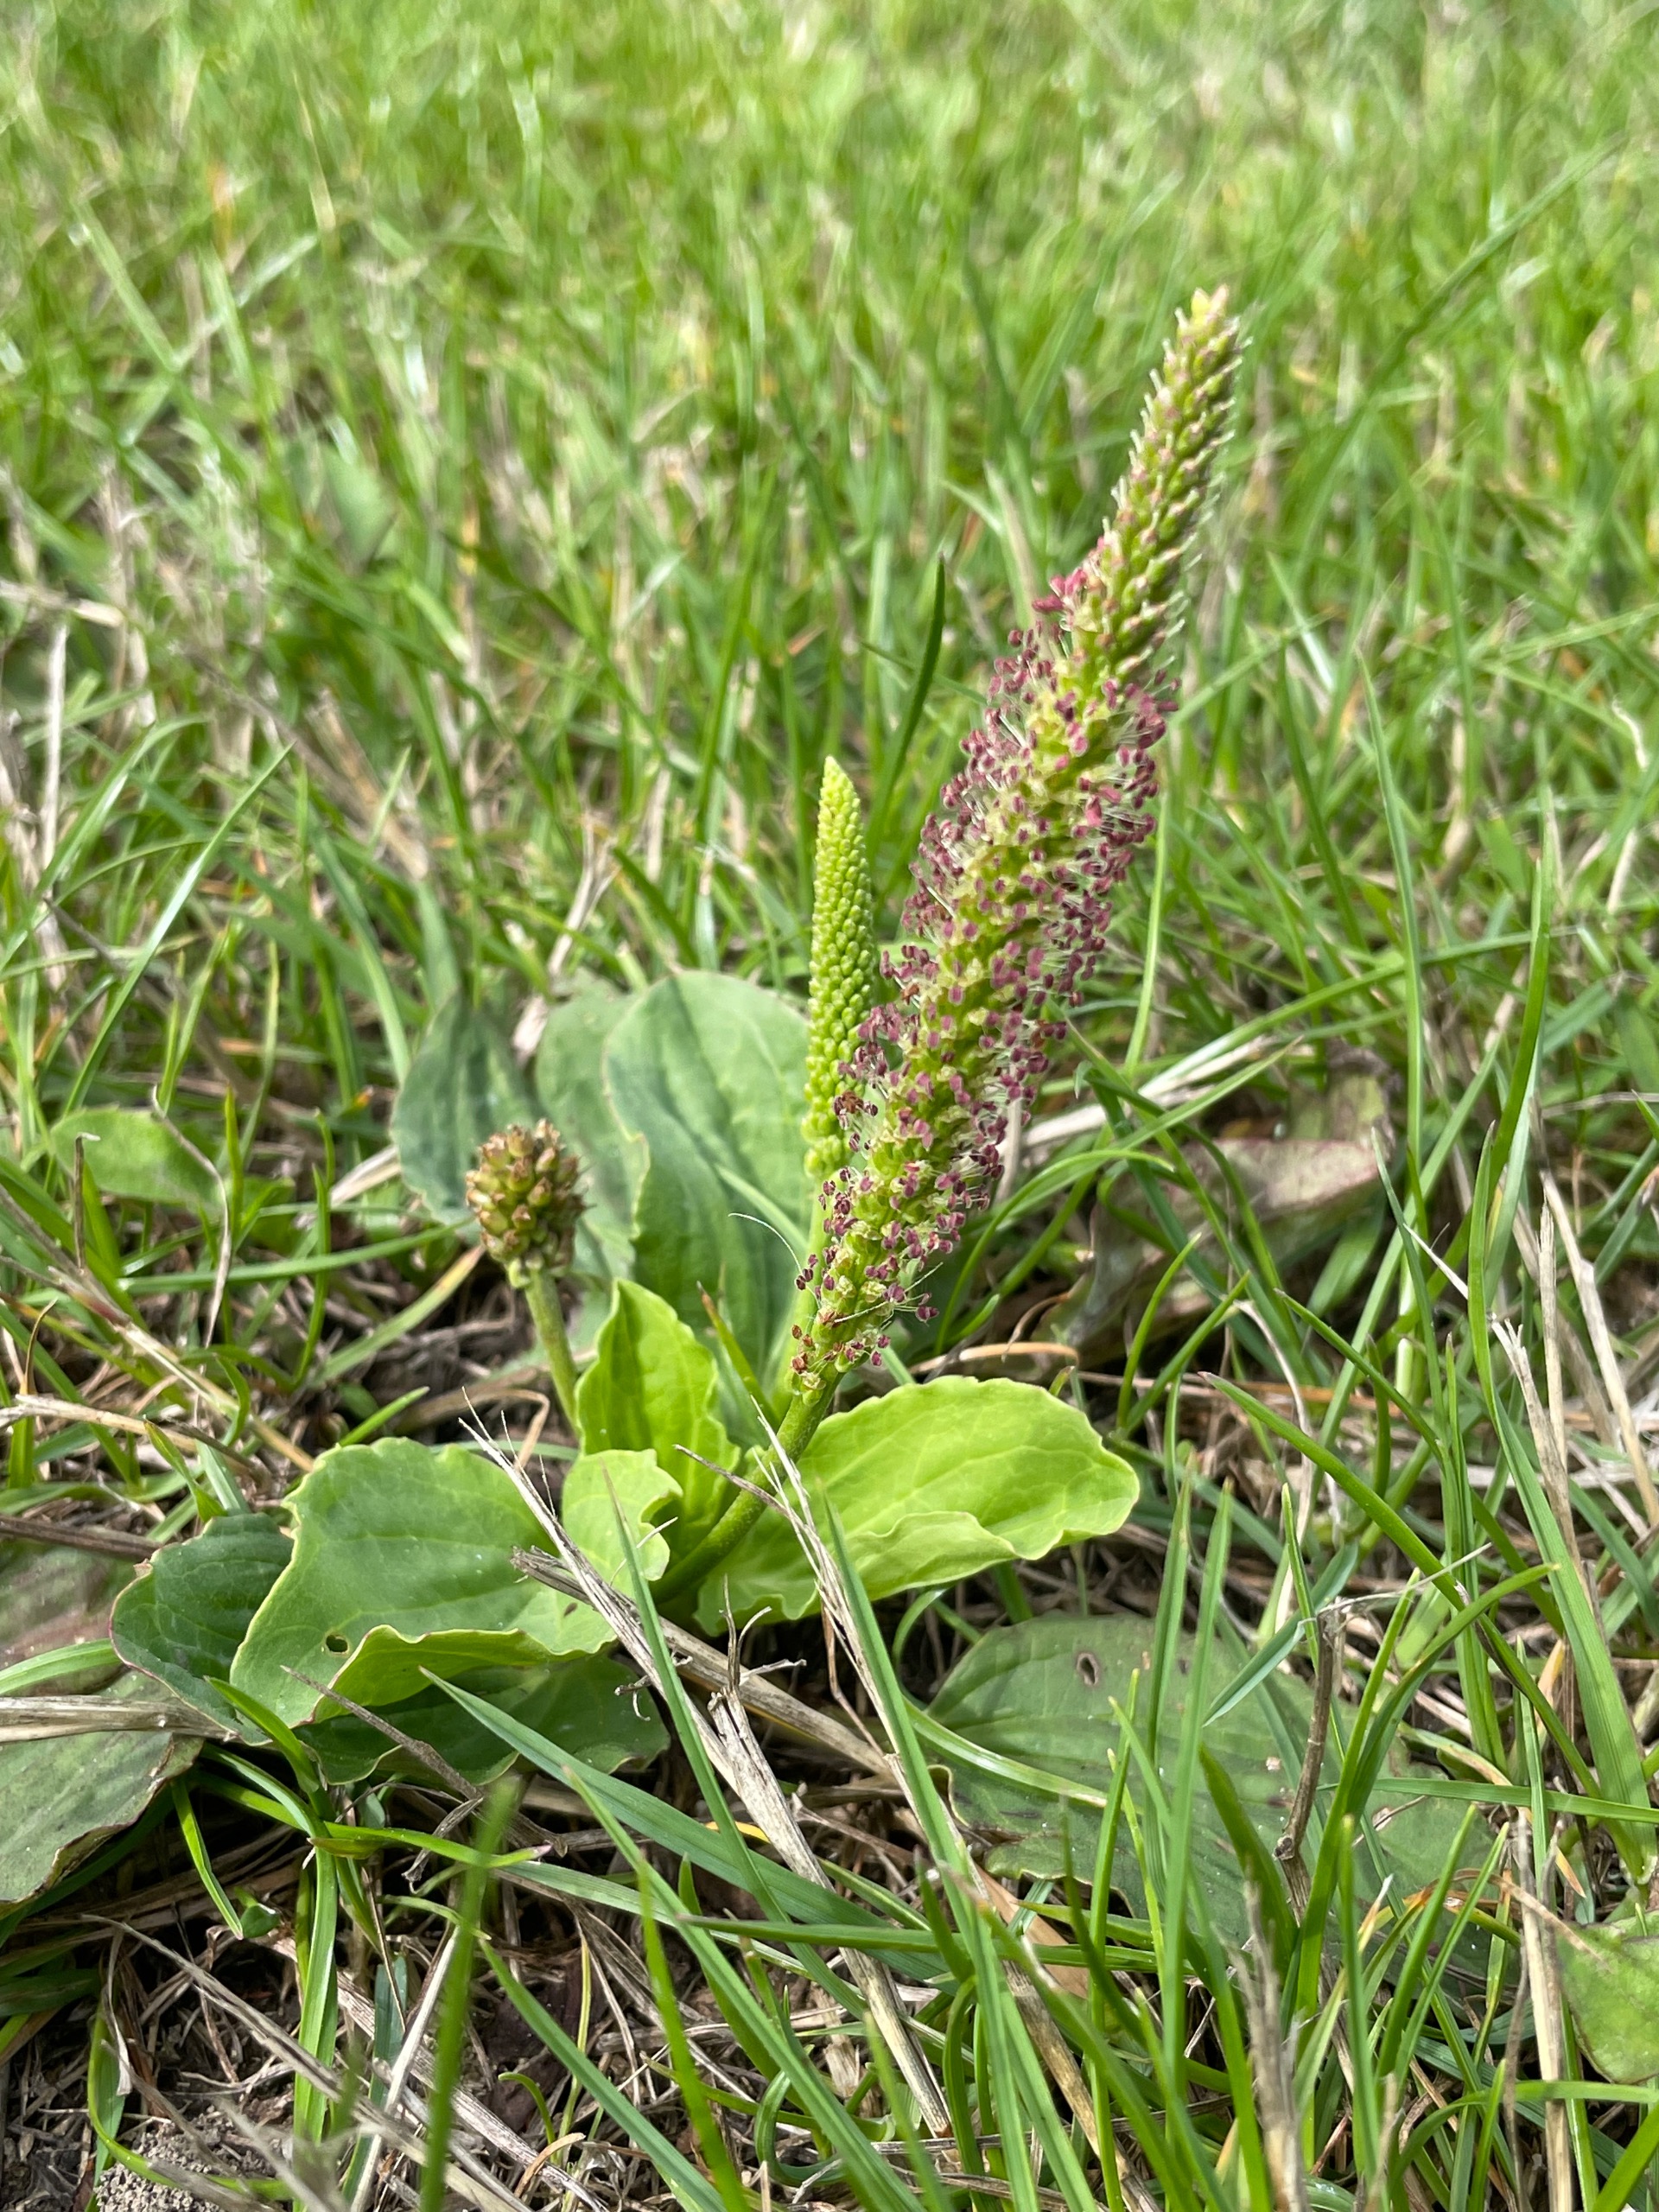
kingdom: Plantae
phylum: Tracheophyta
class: Magnoliopsida
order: Lamiales
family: Plantaginaceae
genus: Plantago
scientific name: Plantago major
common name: Glat vejbred
